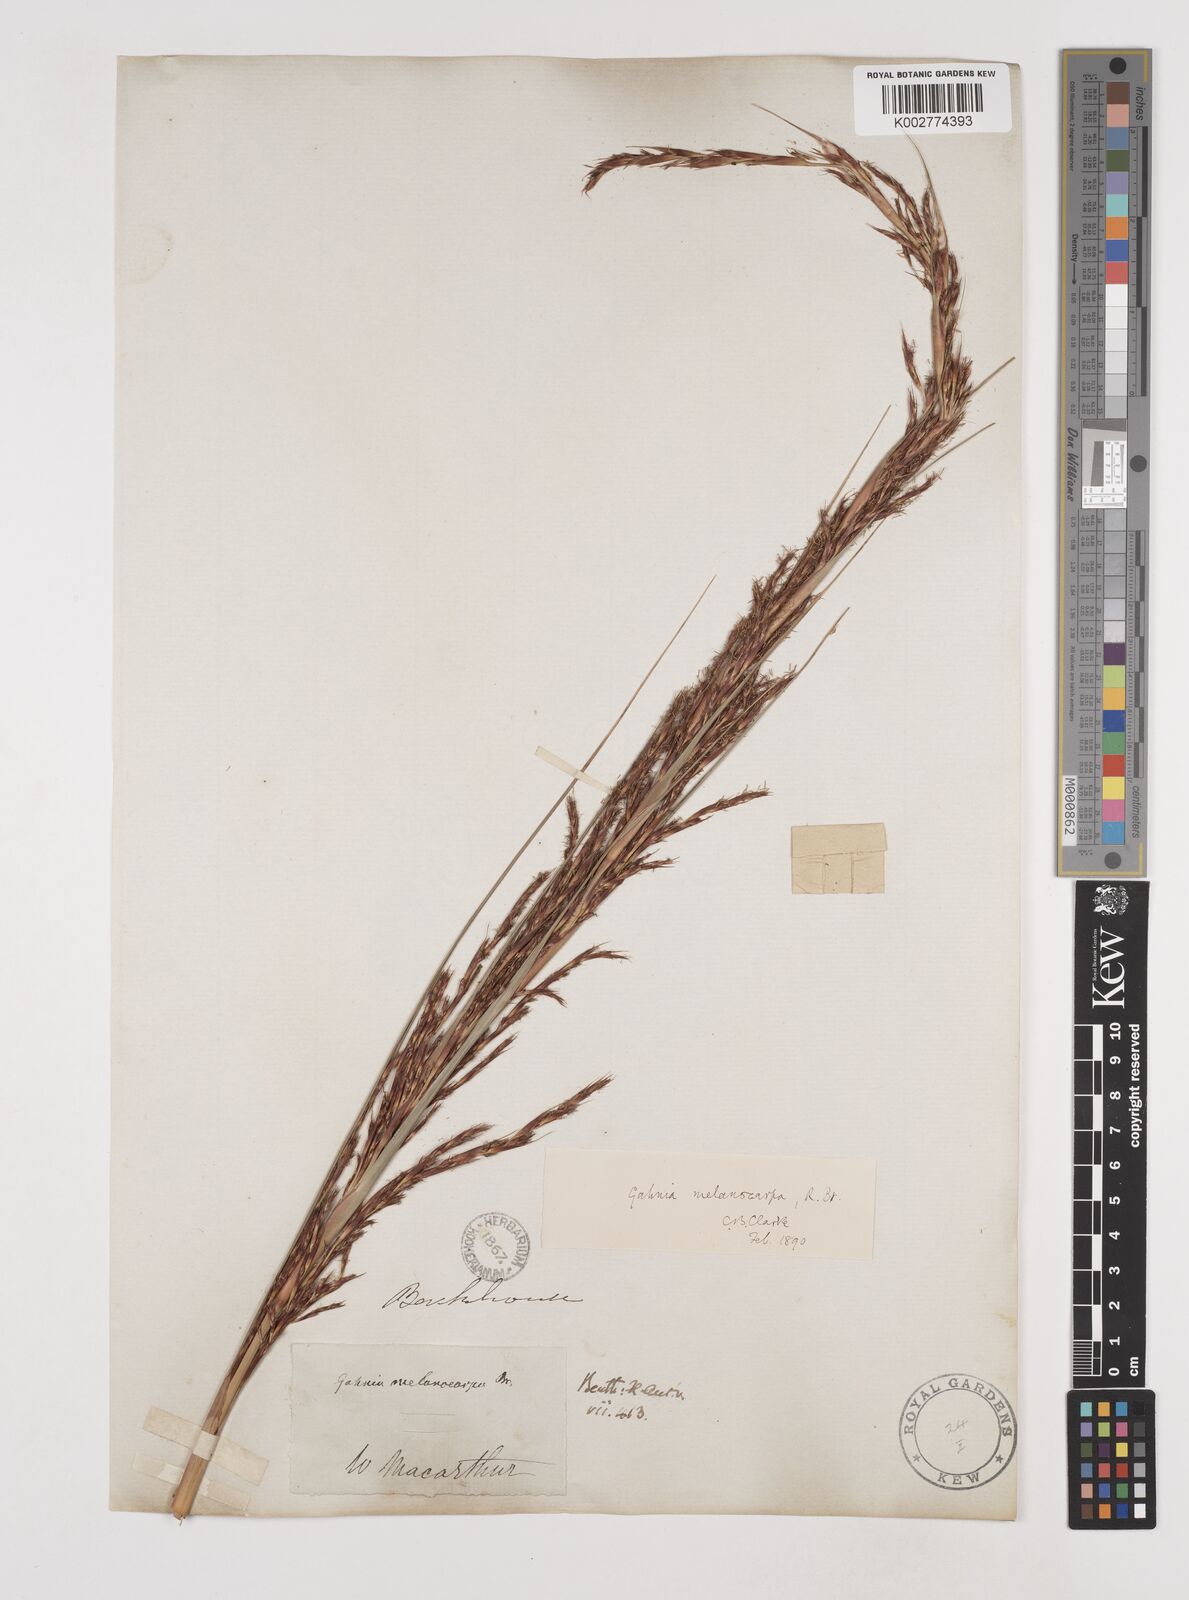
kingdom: Plantae
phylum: Tracheophyta
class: Liliopsida
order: Poales
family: Cyperaceae
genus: Gahnia
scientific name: Gahnia melanocarpa
